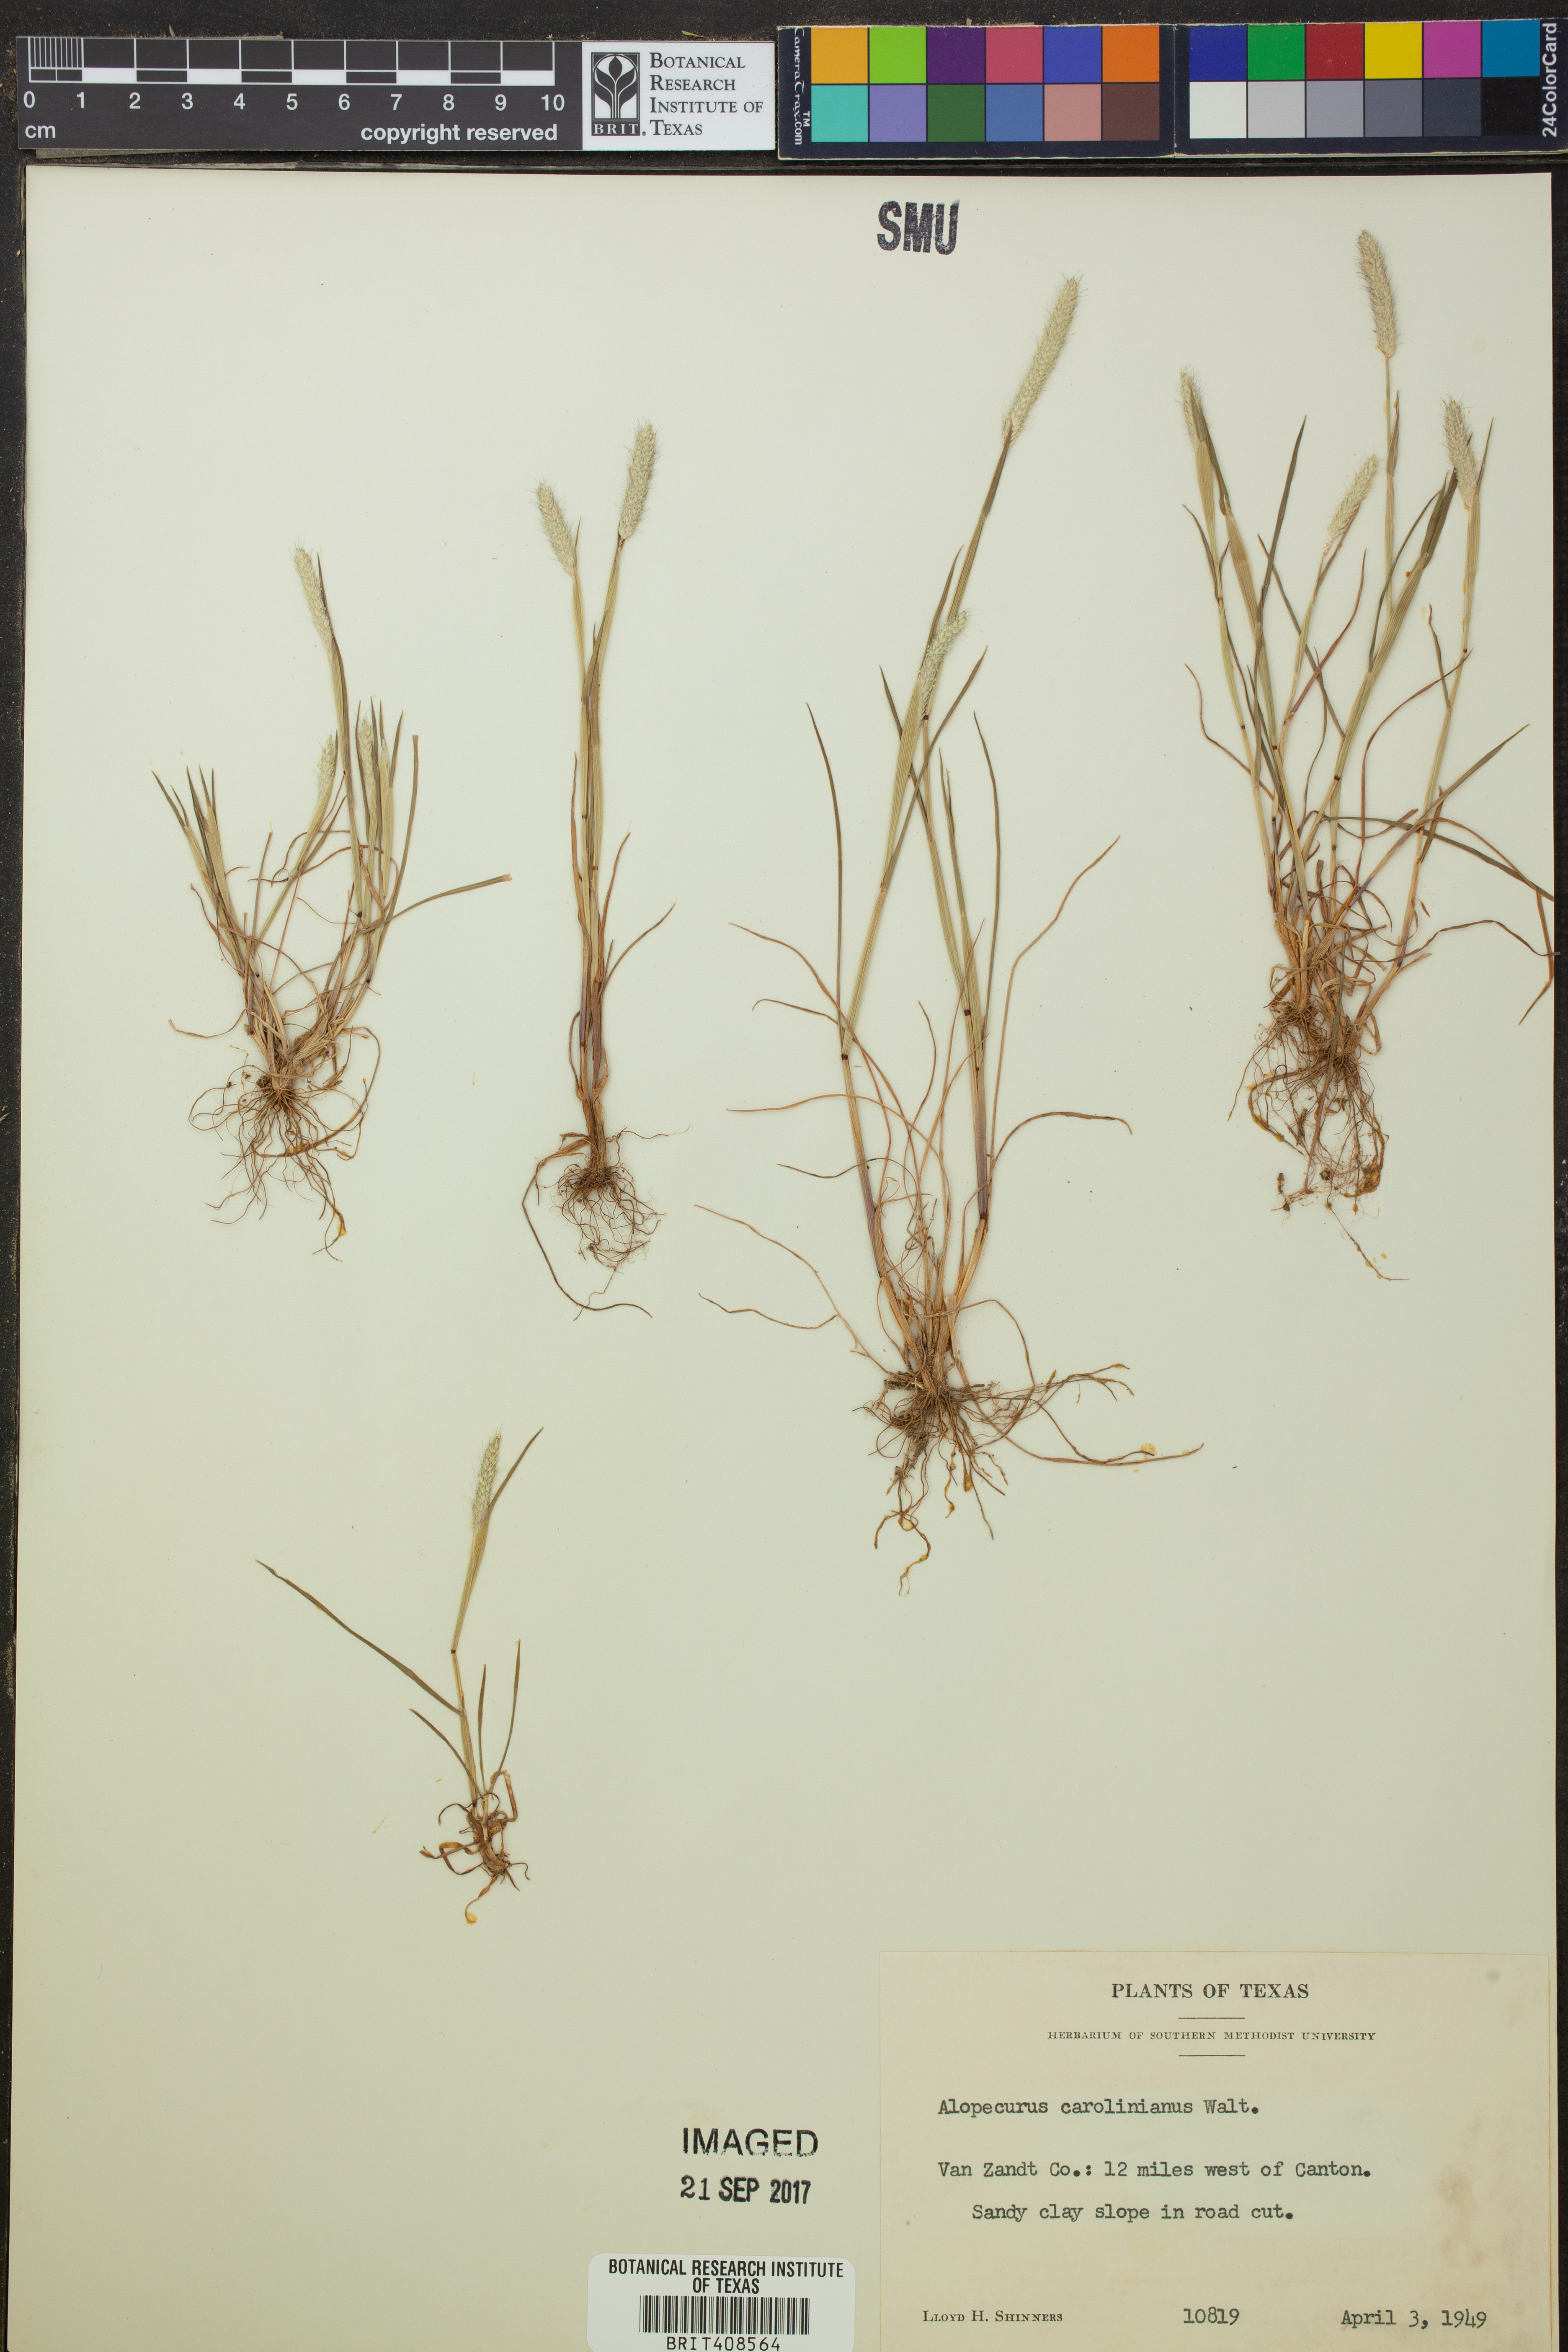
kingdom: Plantae
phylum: Tracheophyta
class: Liliopsida
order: Poales
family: Poaceae
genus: Alopecurus
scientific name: Alopecurus carolinianus
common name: Tufted foxtail
